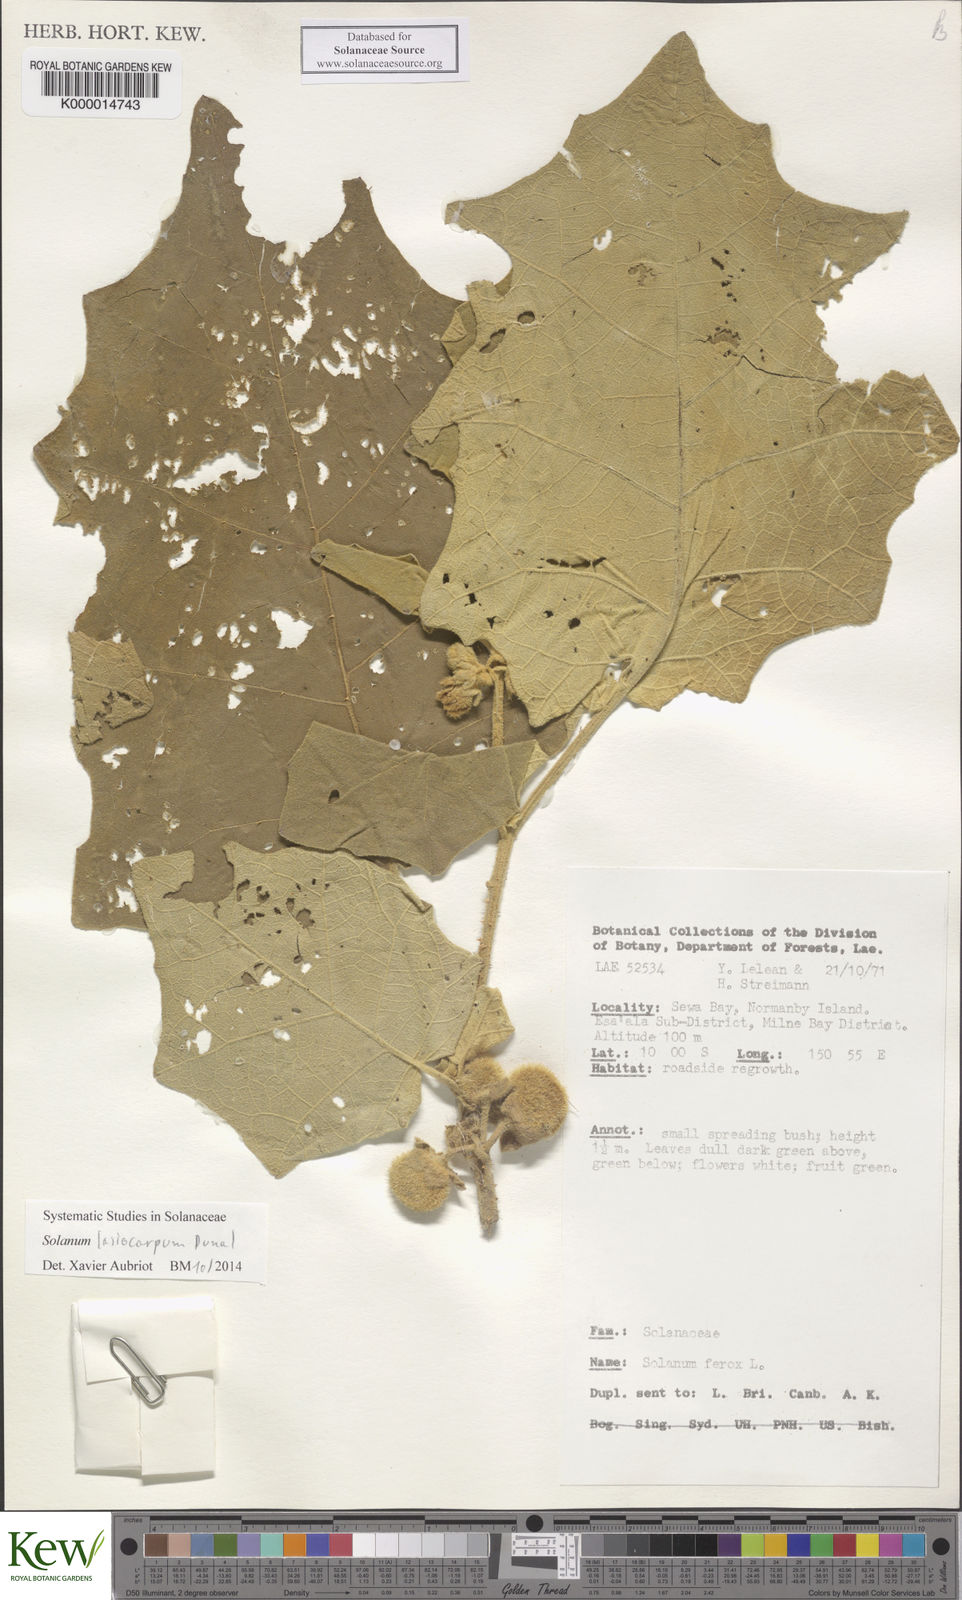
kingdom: Plantae
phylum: Tracheophyta
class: Magnoliopsida
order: Solanales
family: Solanaceae
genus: Solanum
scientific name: Solanum lasiocarpum
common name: Indian nightshade
